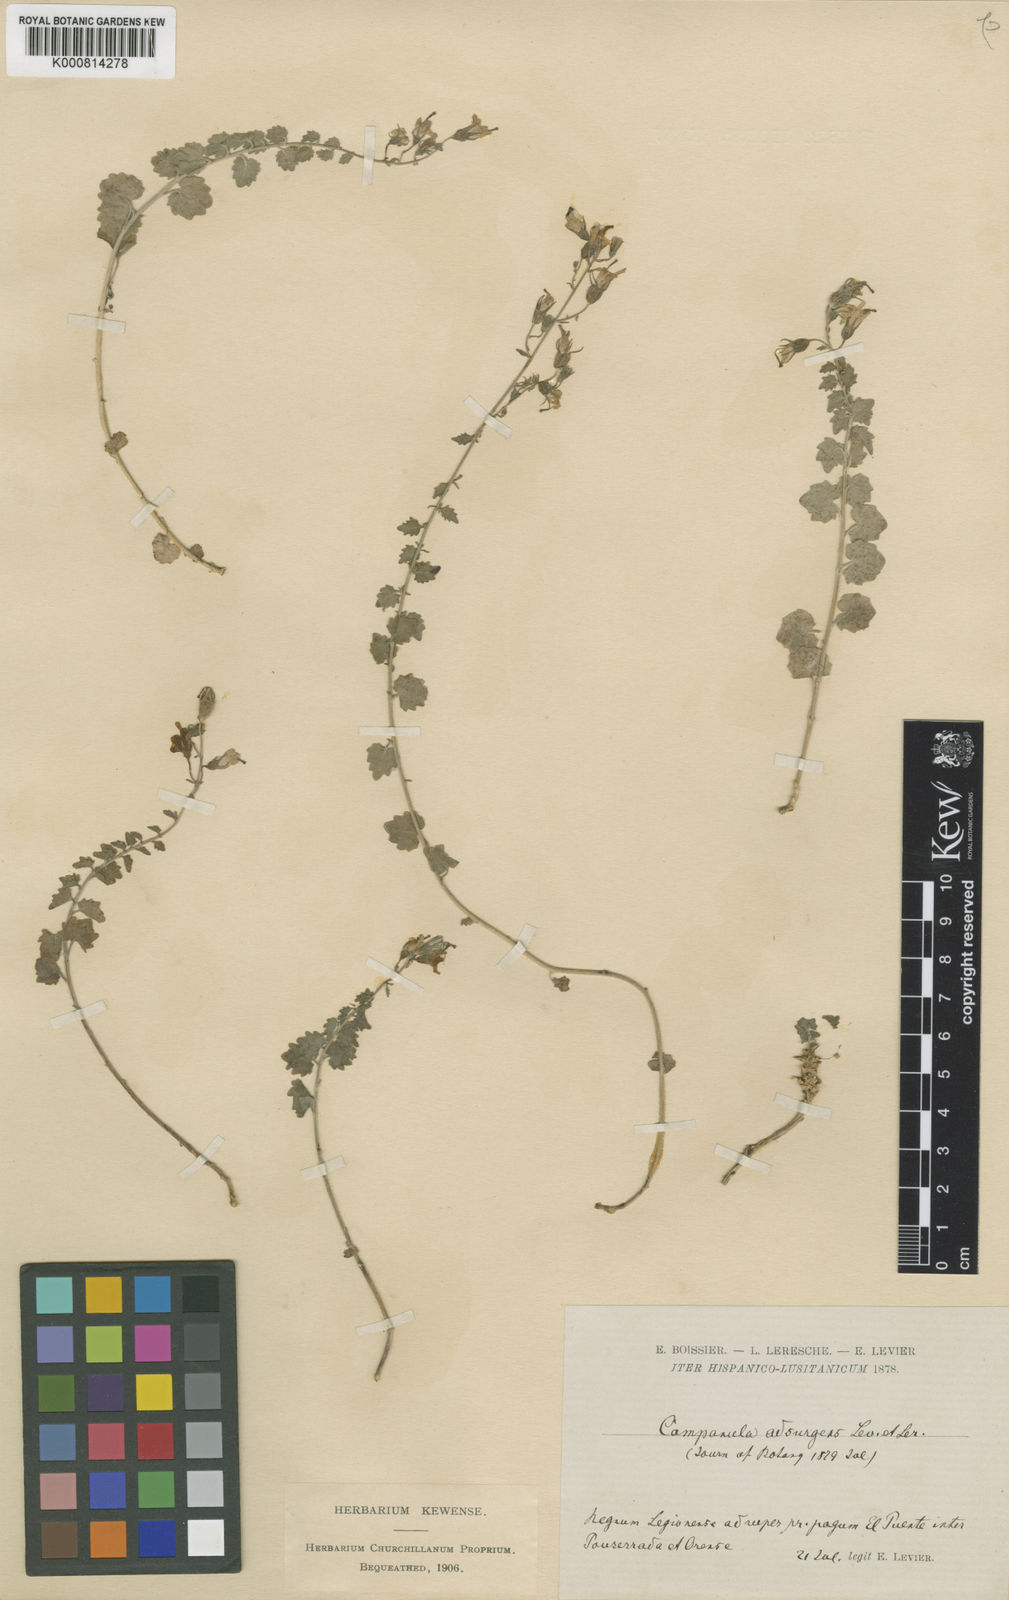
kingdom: Plantae
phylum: Tracheophyta
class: Magnoliopsida
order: Asterales
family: Campanulaceae
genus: Campanula
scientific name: Campanula arvatica
